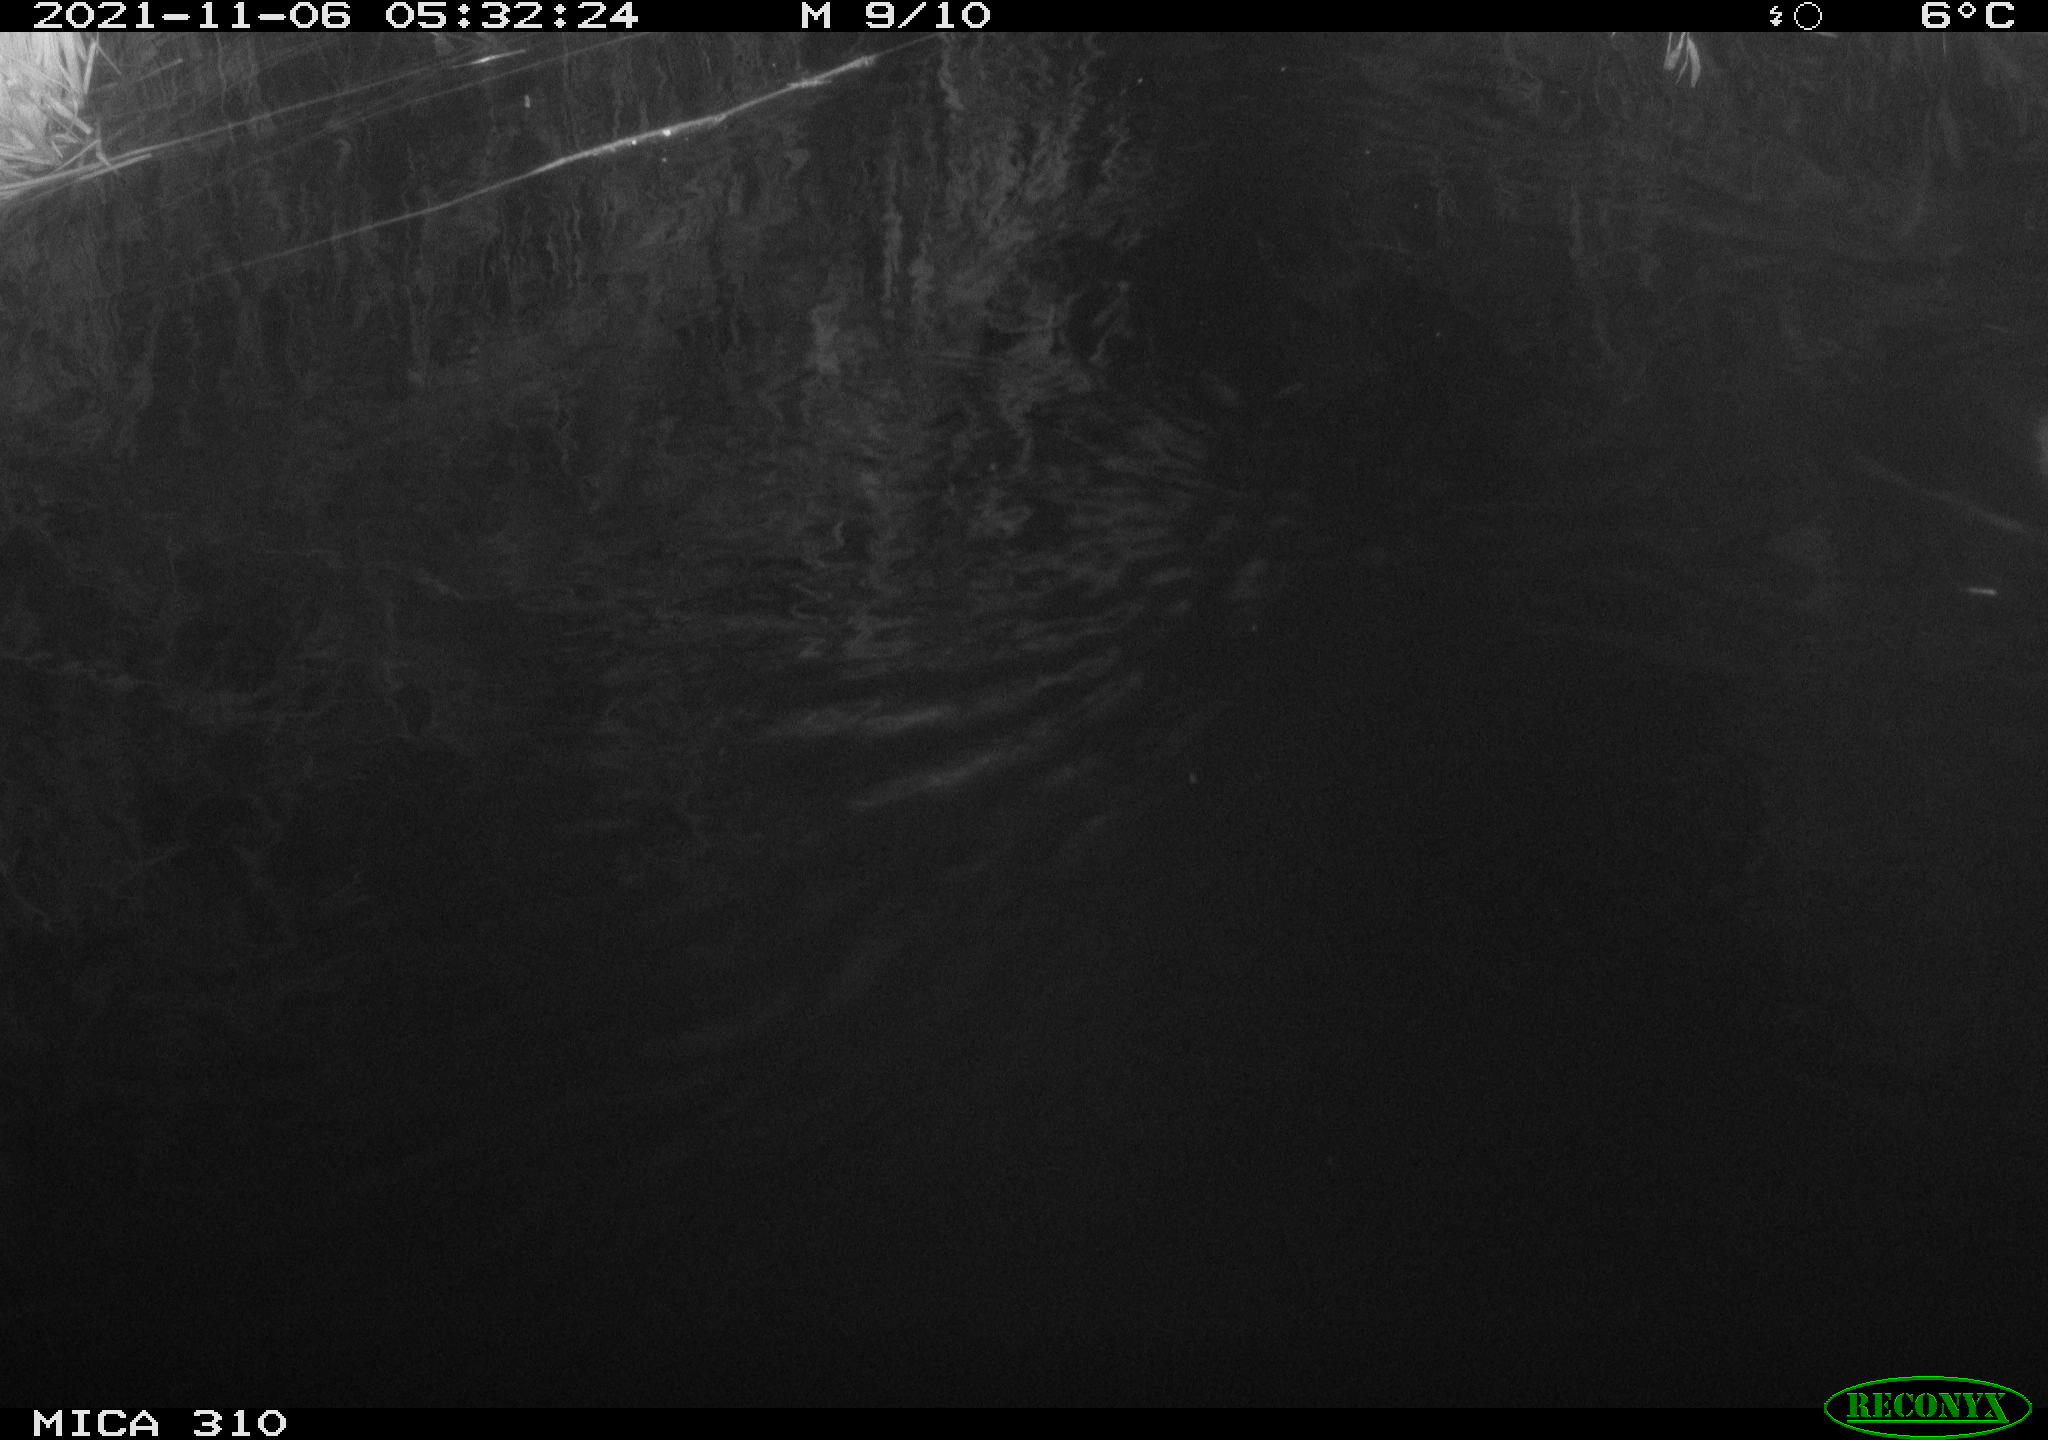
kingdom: Animalia
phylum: Chordata
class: Mammalia
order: Rodentia
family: Muridae
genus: Rattus
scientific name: Rattus norvegicus
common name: Brown rat
